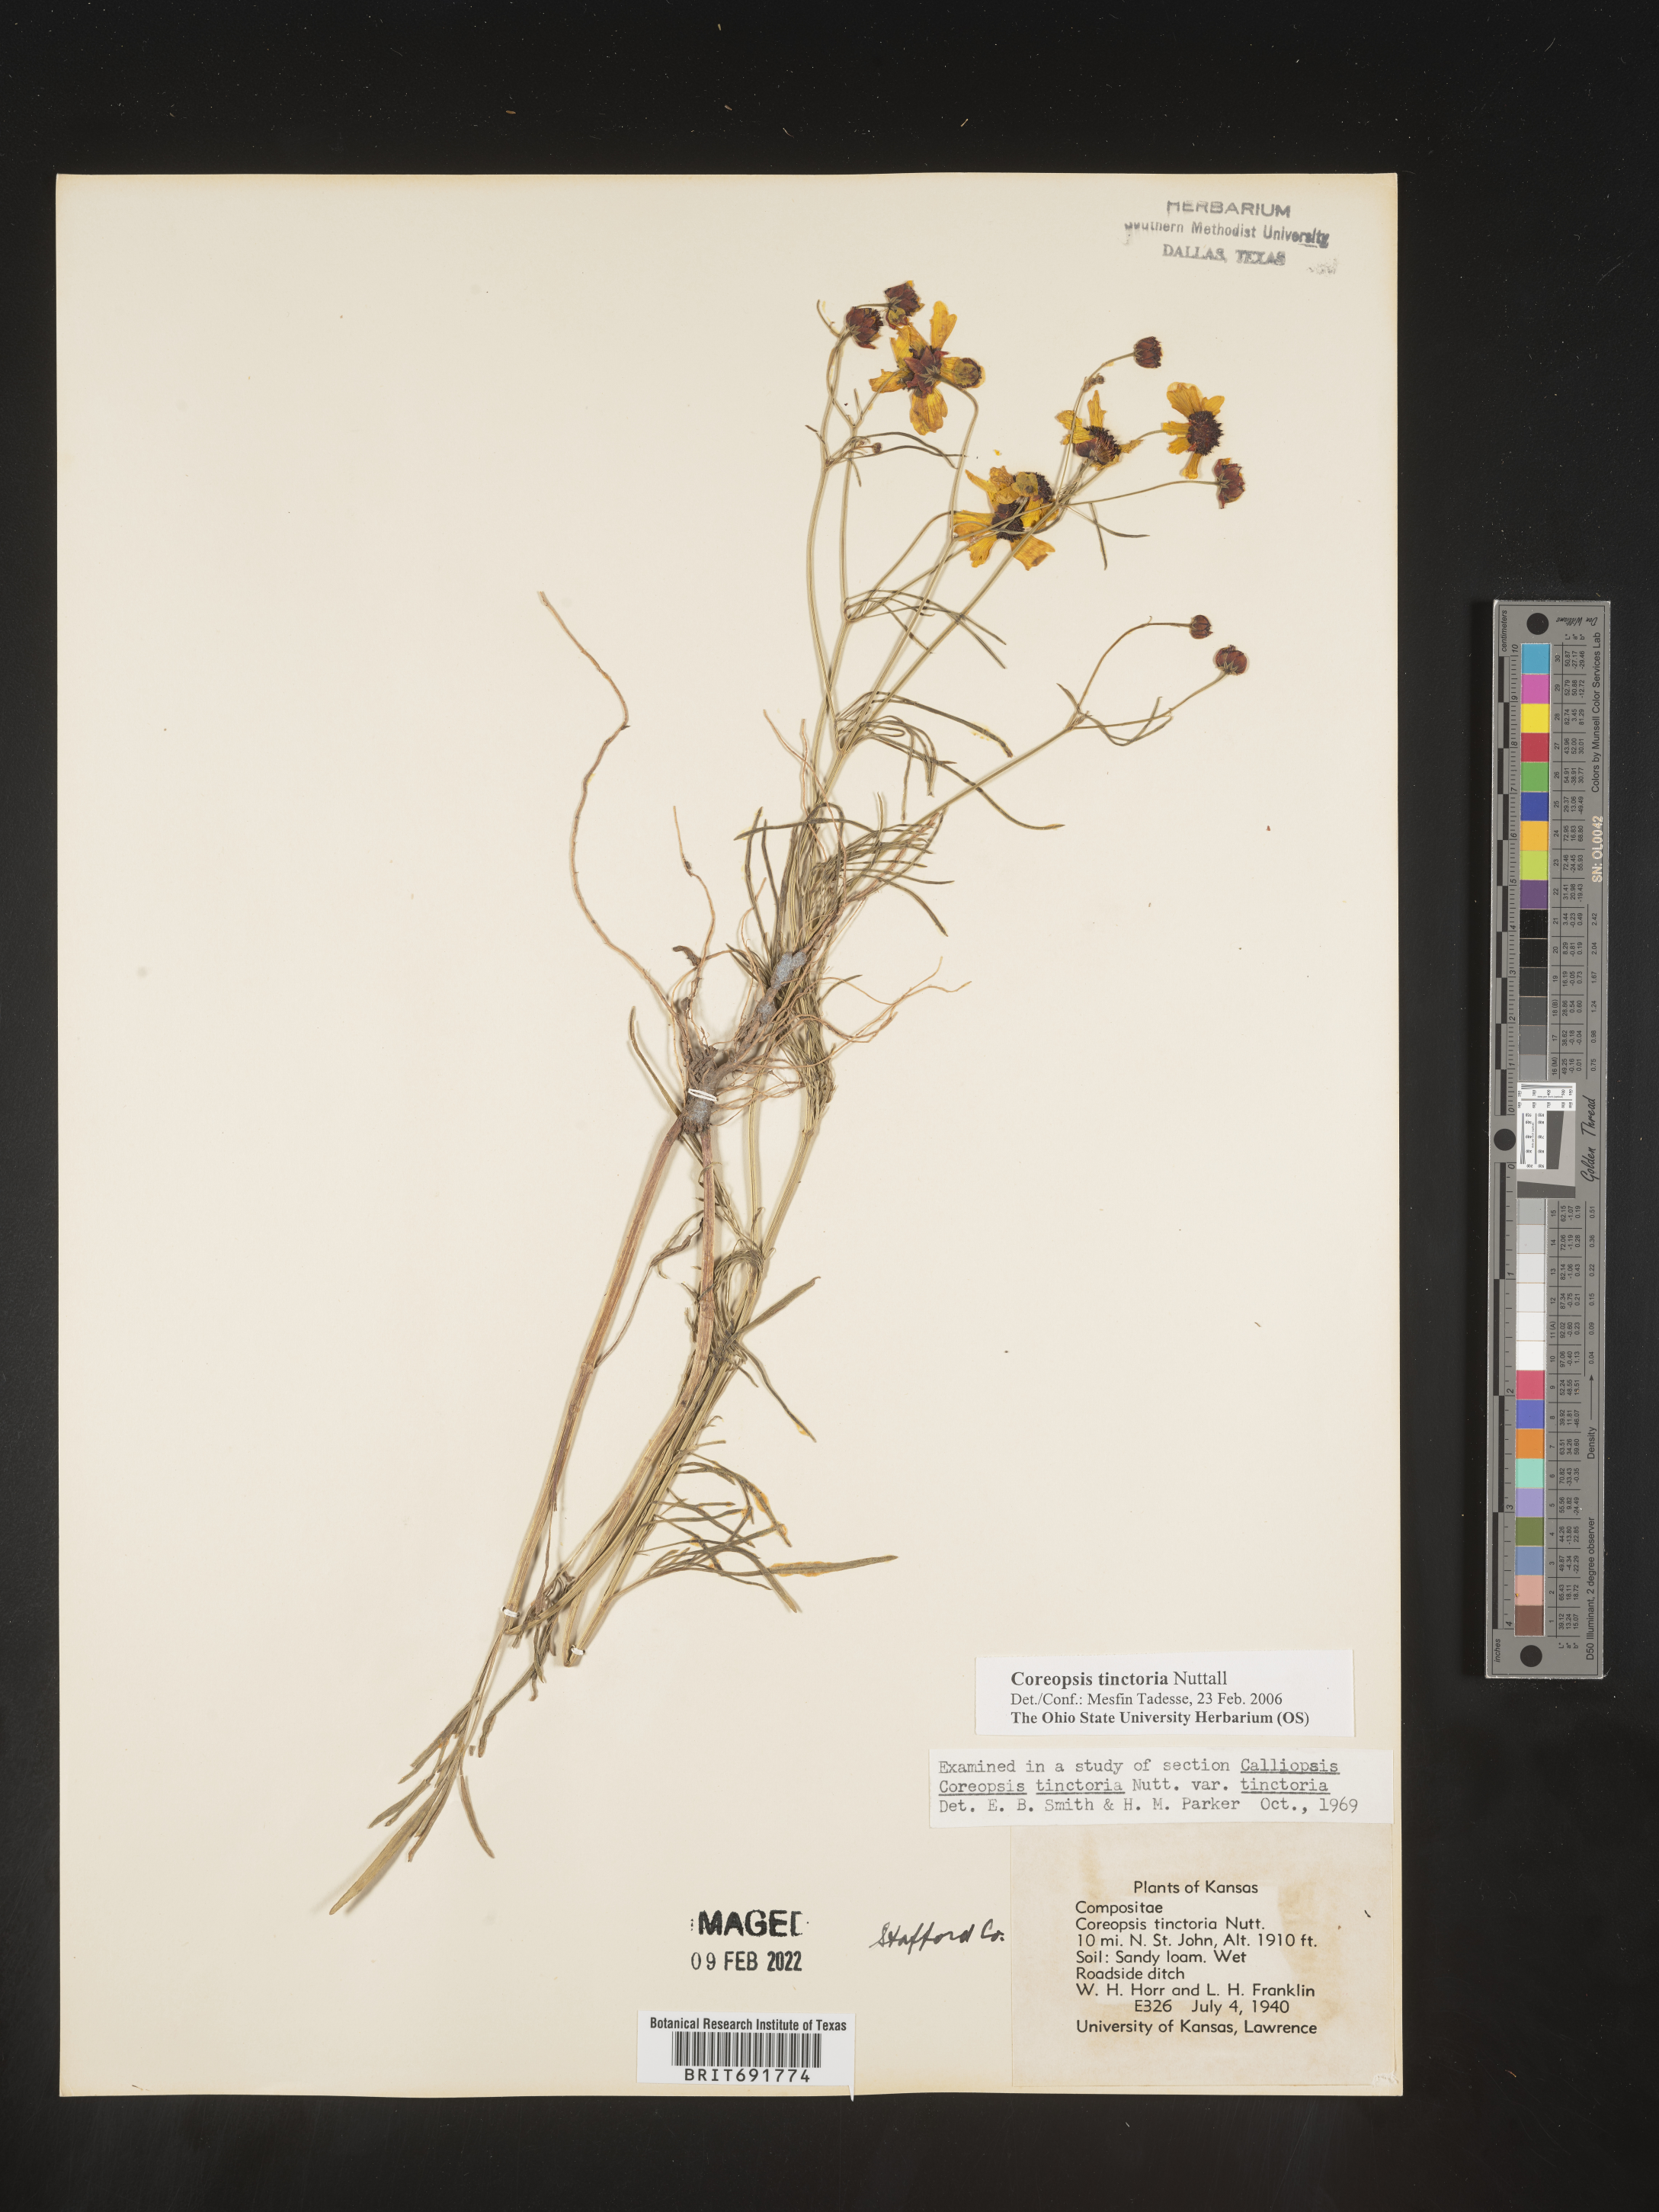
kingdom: Plantae
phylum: Tracheophyta
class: Magnoliopsida
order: Asterales
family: Asteraceae
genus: Coreopsis
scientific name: Coreopsis tinctoria
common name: Garden tickseed
